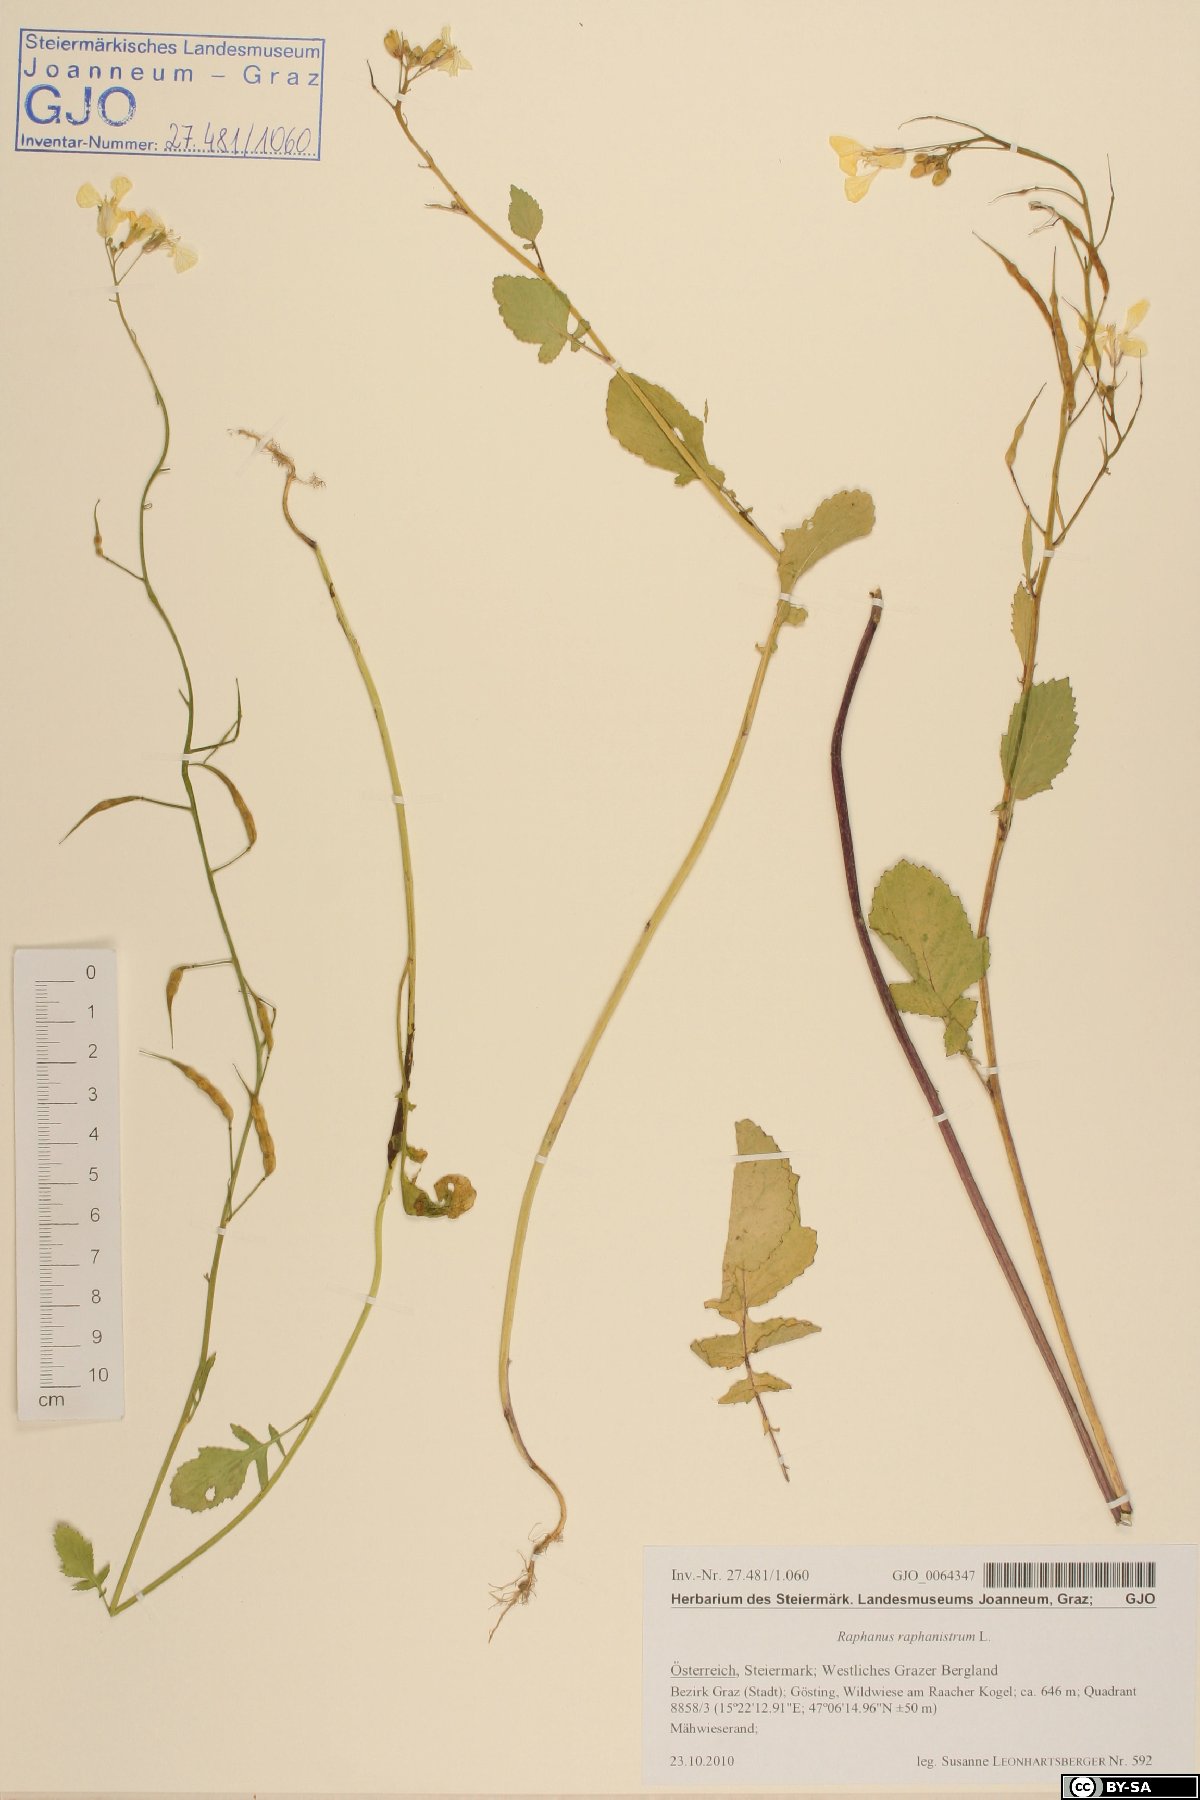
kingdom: Plantae
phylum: Tracheophyta
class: Magnoliopsida
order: Brassicales
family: Brassicaceae
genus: Raphanus
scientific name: Raphanus raphanistrum
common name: Wild radish
